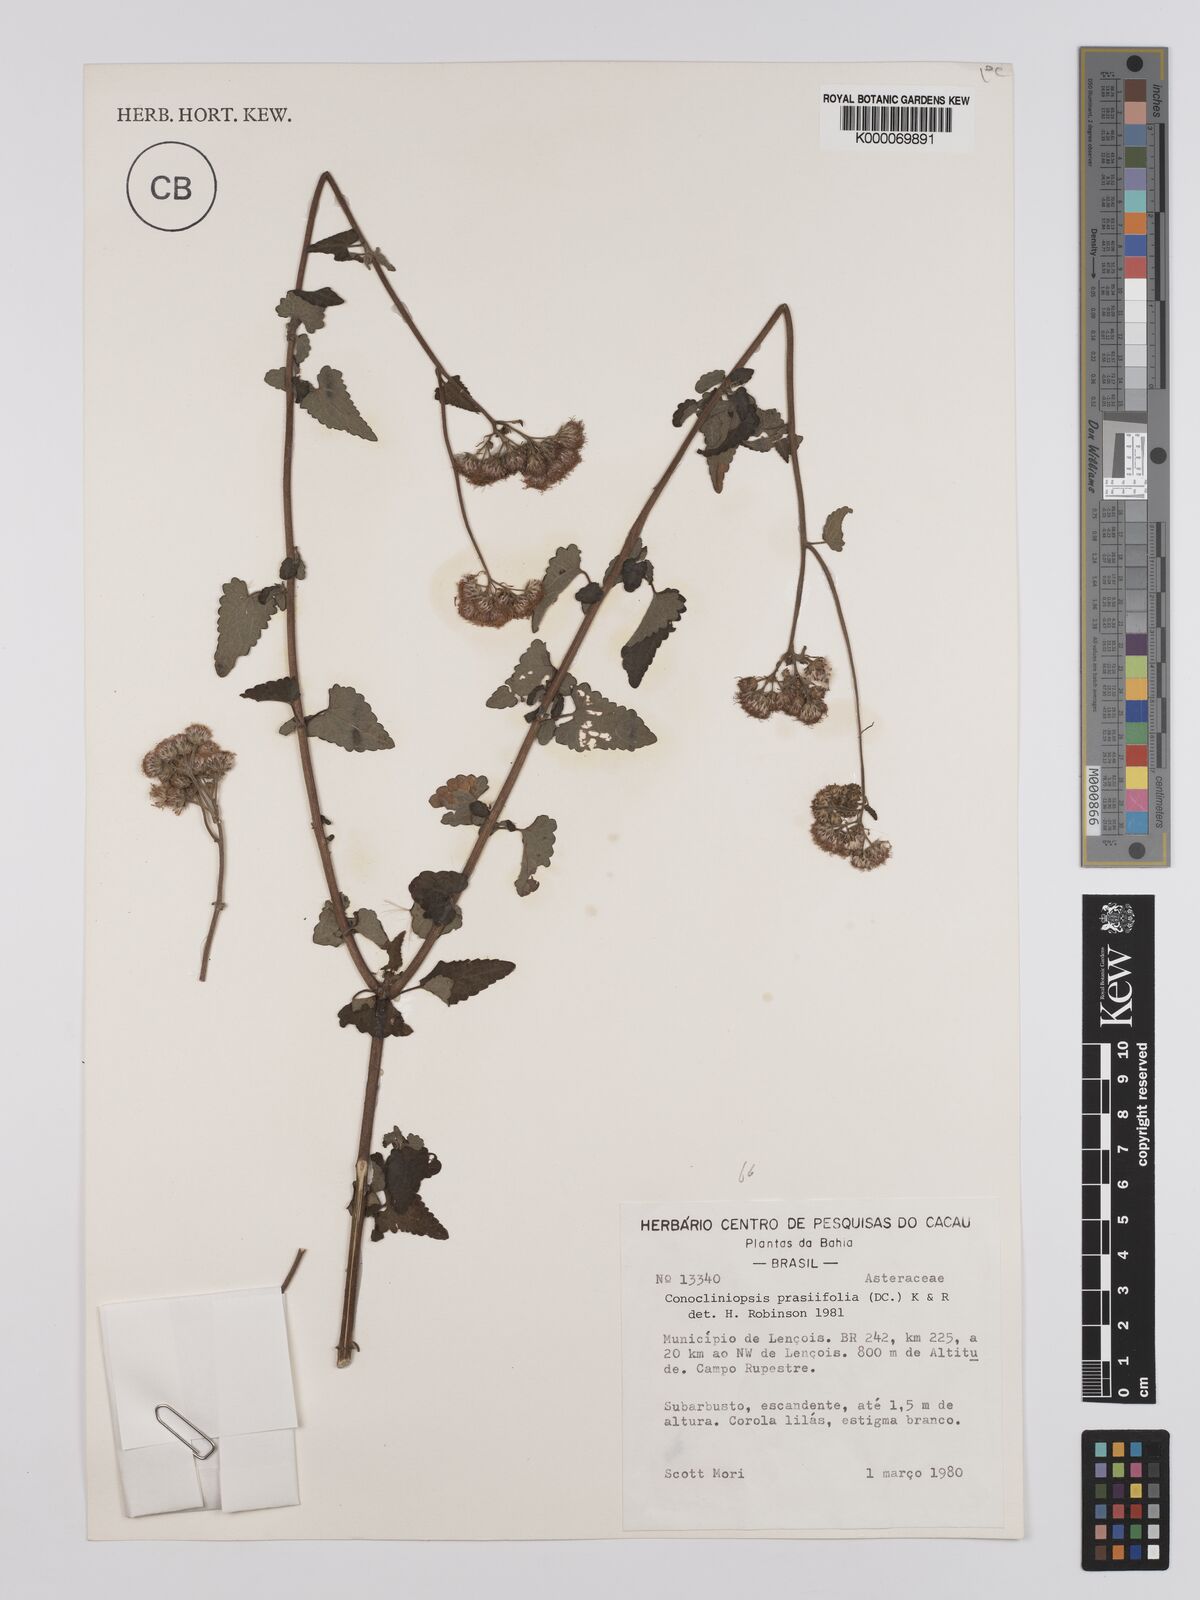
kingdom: Plantae
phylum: Tracheophyta
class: Magnoliopsida
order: Asterales
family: Asteraceae
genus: Conocliniopsis
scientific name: Conocliniopsis grossedentata
